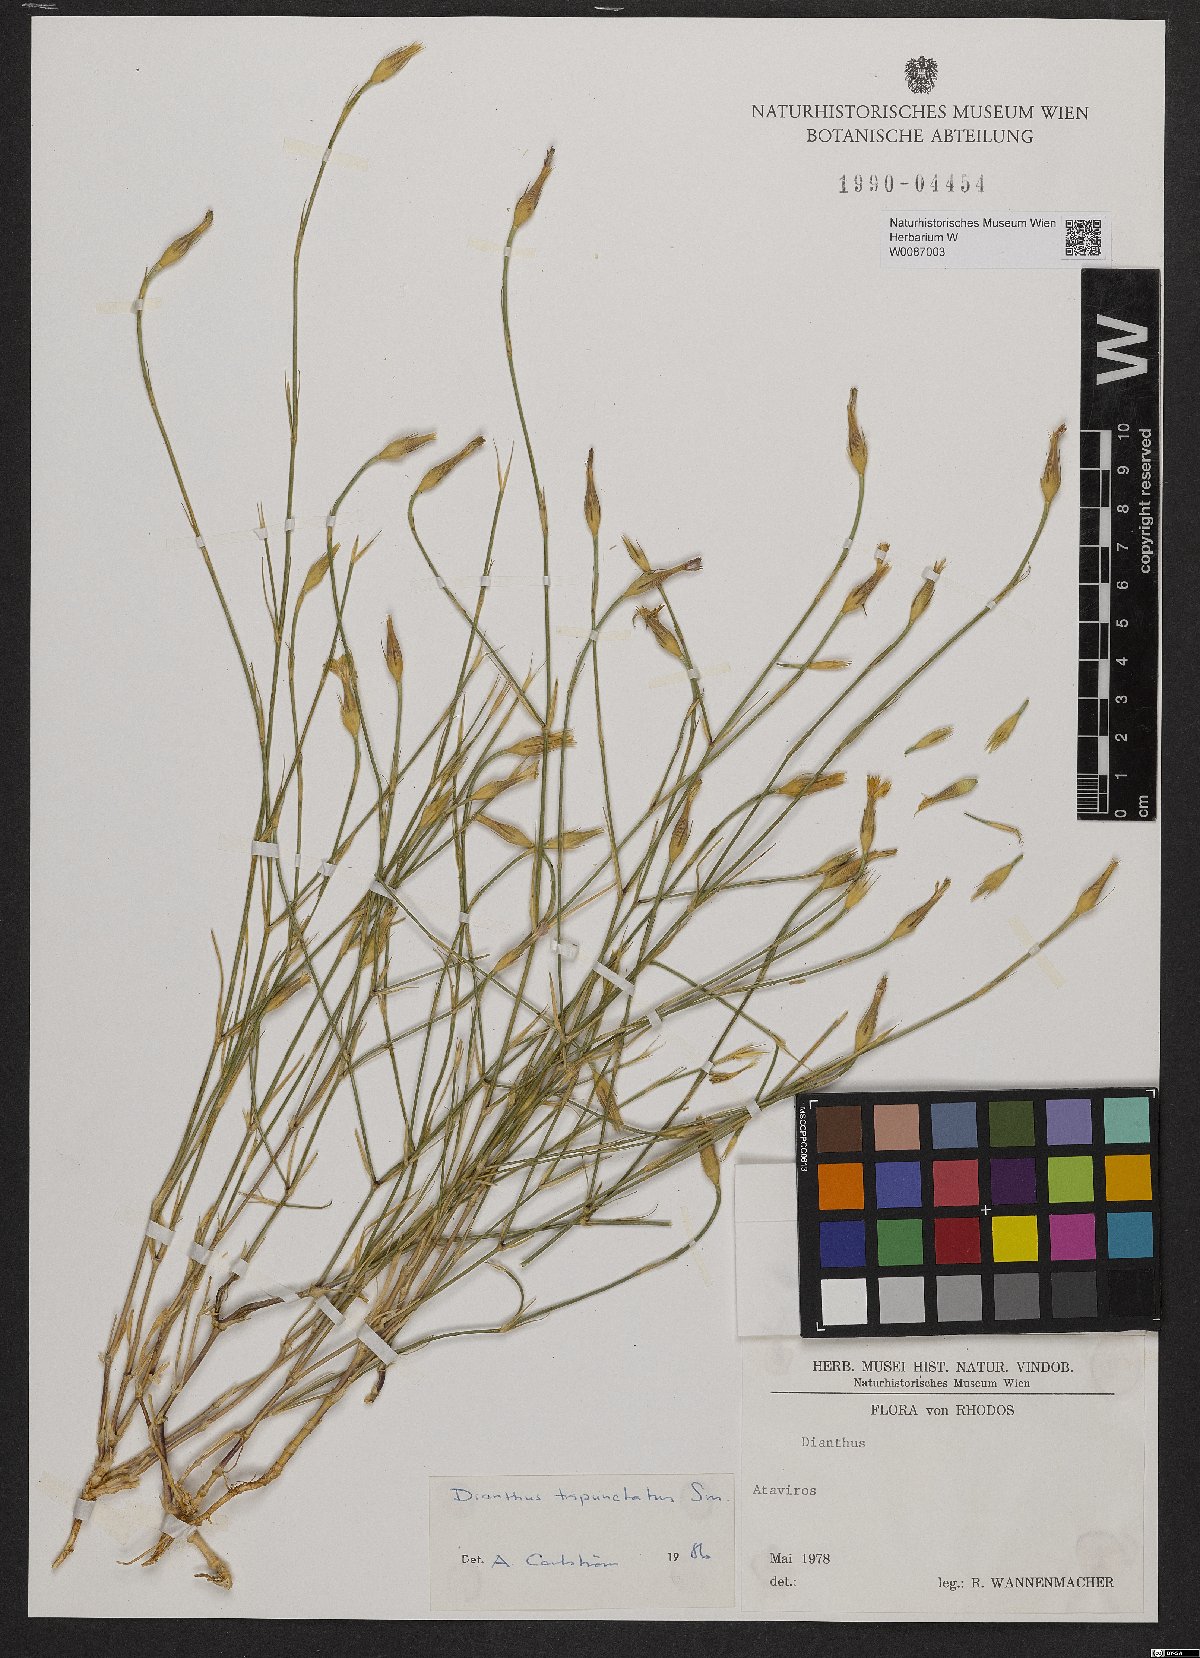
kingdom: Plantae
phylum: Tracheophyta
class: Magnoliopsida
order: Caryophyllales
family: Caryophyllaceae
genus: Dianthus
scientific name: Dianthus tripunctatus
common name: Three-spotted pink
